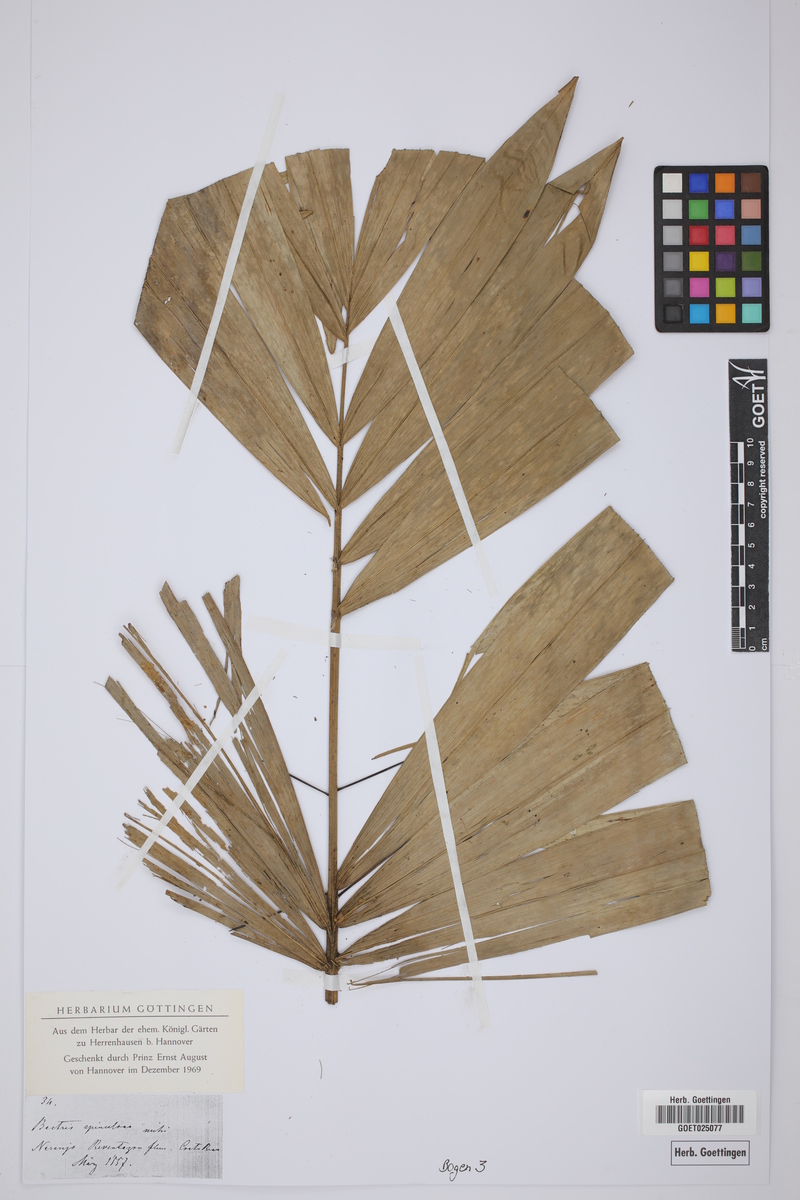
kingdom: Plantae
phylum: Tracheophyta
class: Liliopsida
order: Arecales
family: Arecaceae
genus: Bactris
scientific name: Bactris spinosa
